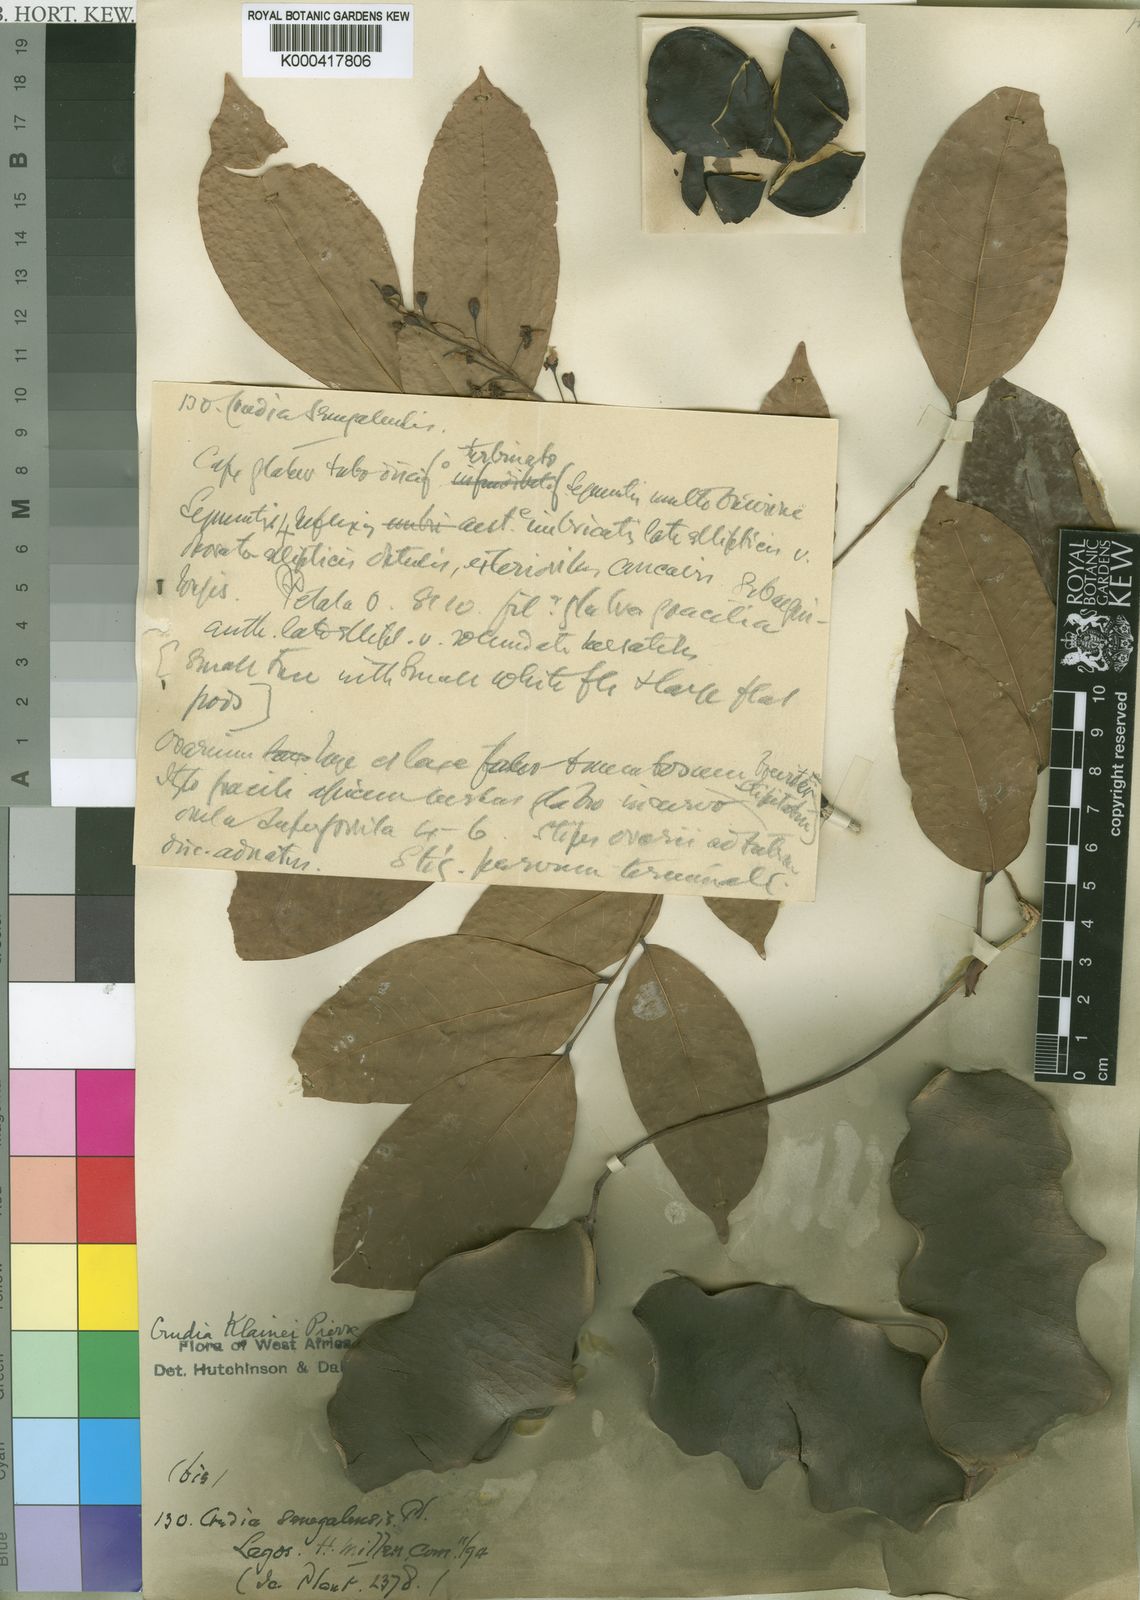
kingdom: Plantae
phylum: Tracheophyta
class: Magnoliopsida
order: Fabales
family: Fabaceae
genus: Crudia
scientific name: Crudia klainei
